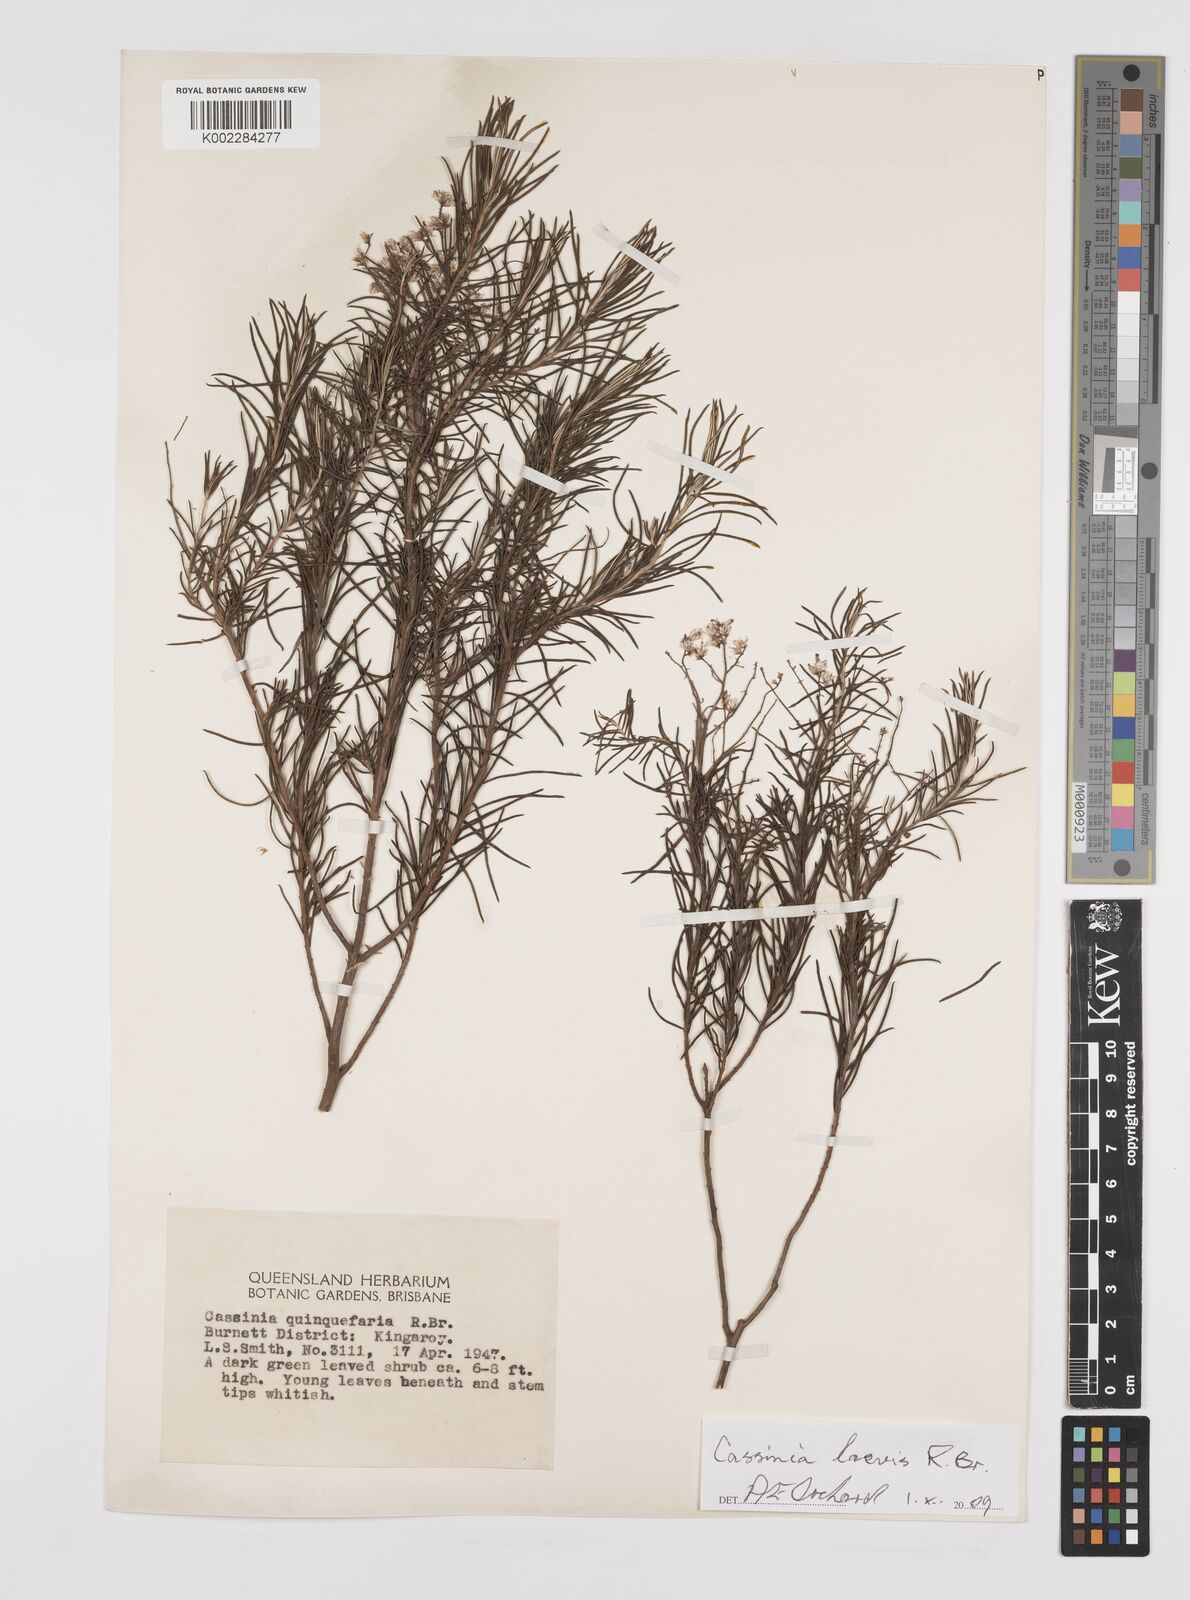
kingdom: Plantae
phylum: Tracheophyta
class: Magnoliopsida
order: Asterales
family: Asteraceae
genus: Cassinia
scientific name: Cassinia laevis
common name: Coughbush
